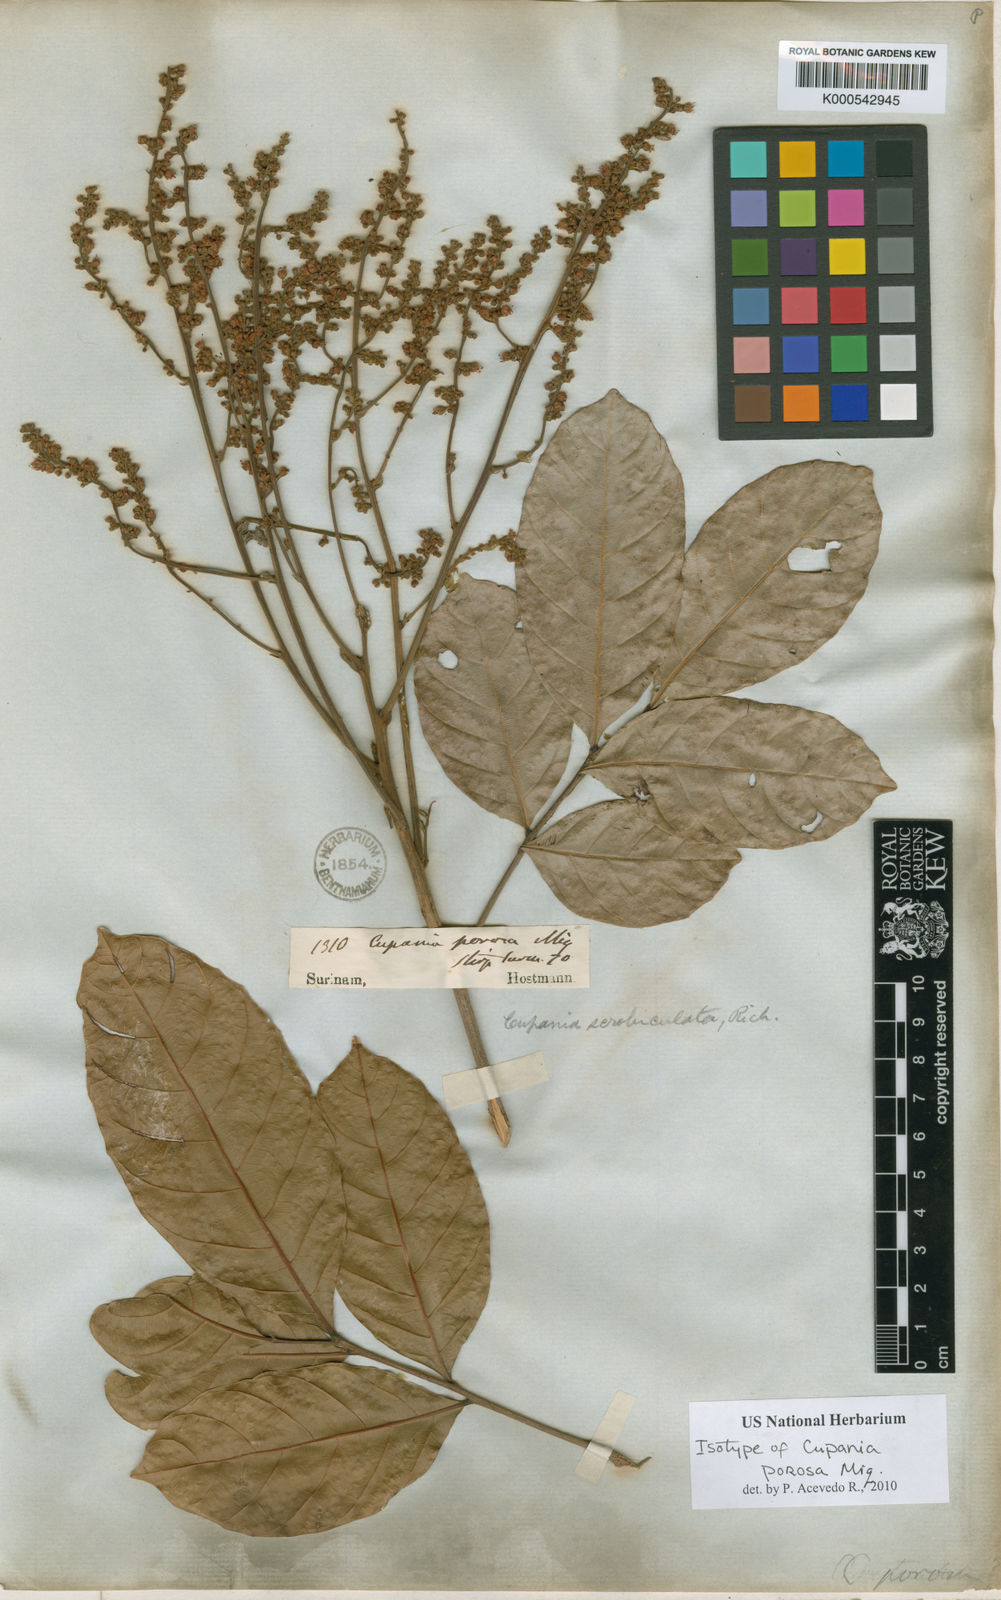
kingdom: Plantae
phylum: Tracheophyta
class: Magnoliopsida
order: Sapindales
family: Sapindaceae
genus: Cupania
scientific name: Cupania
